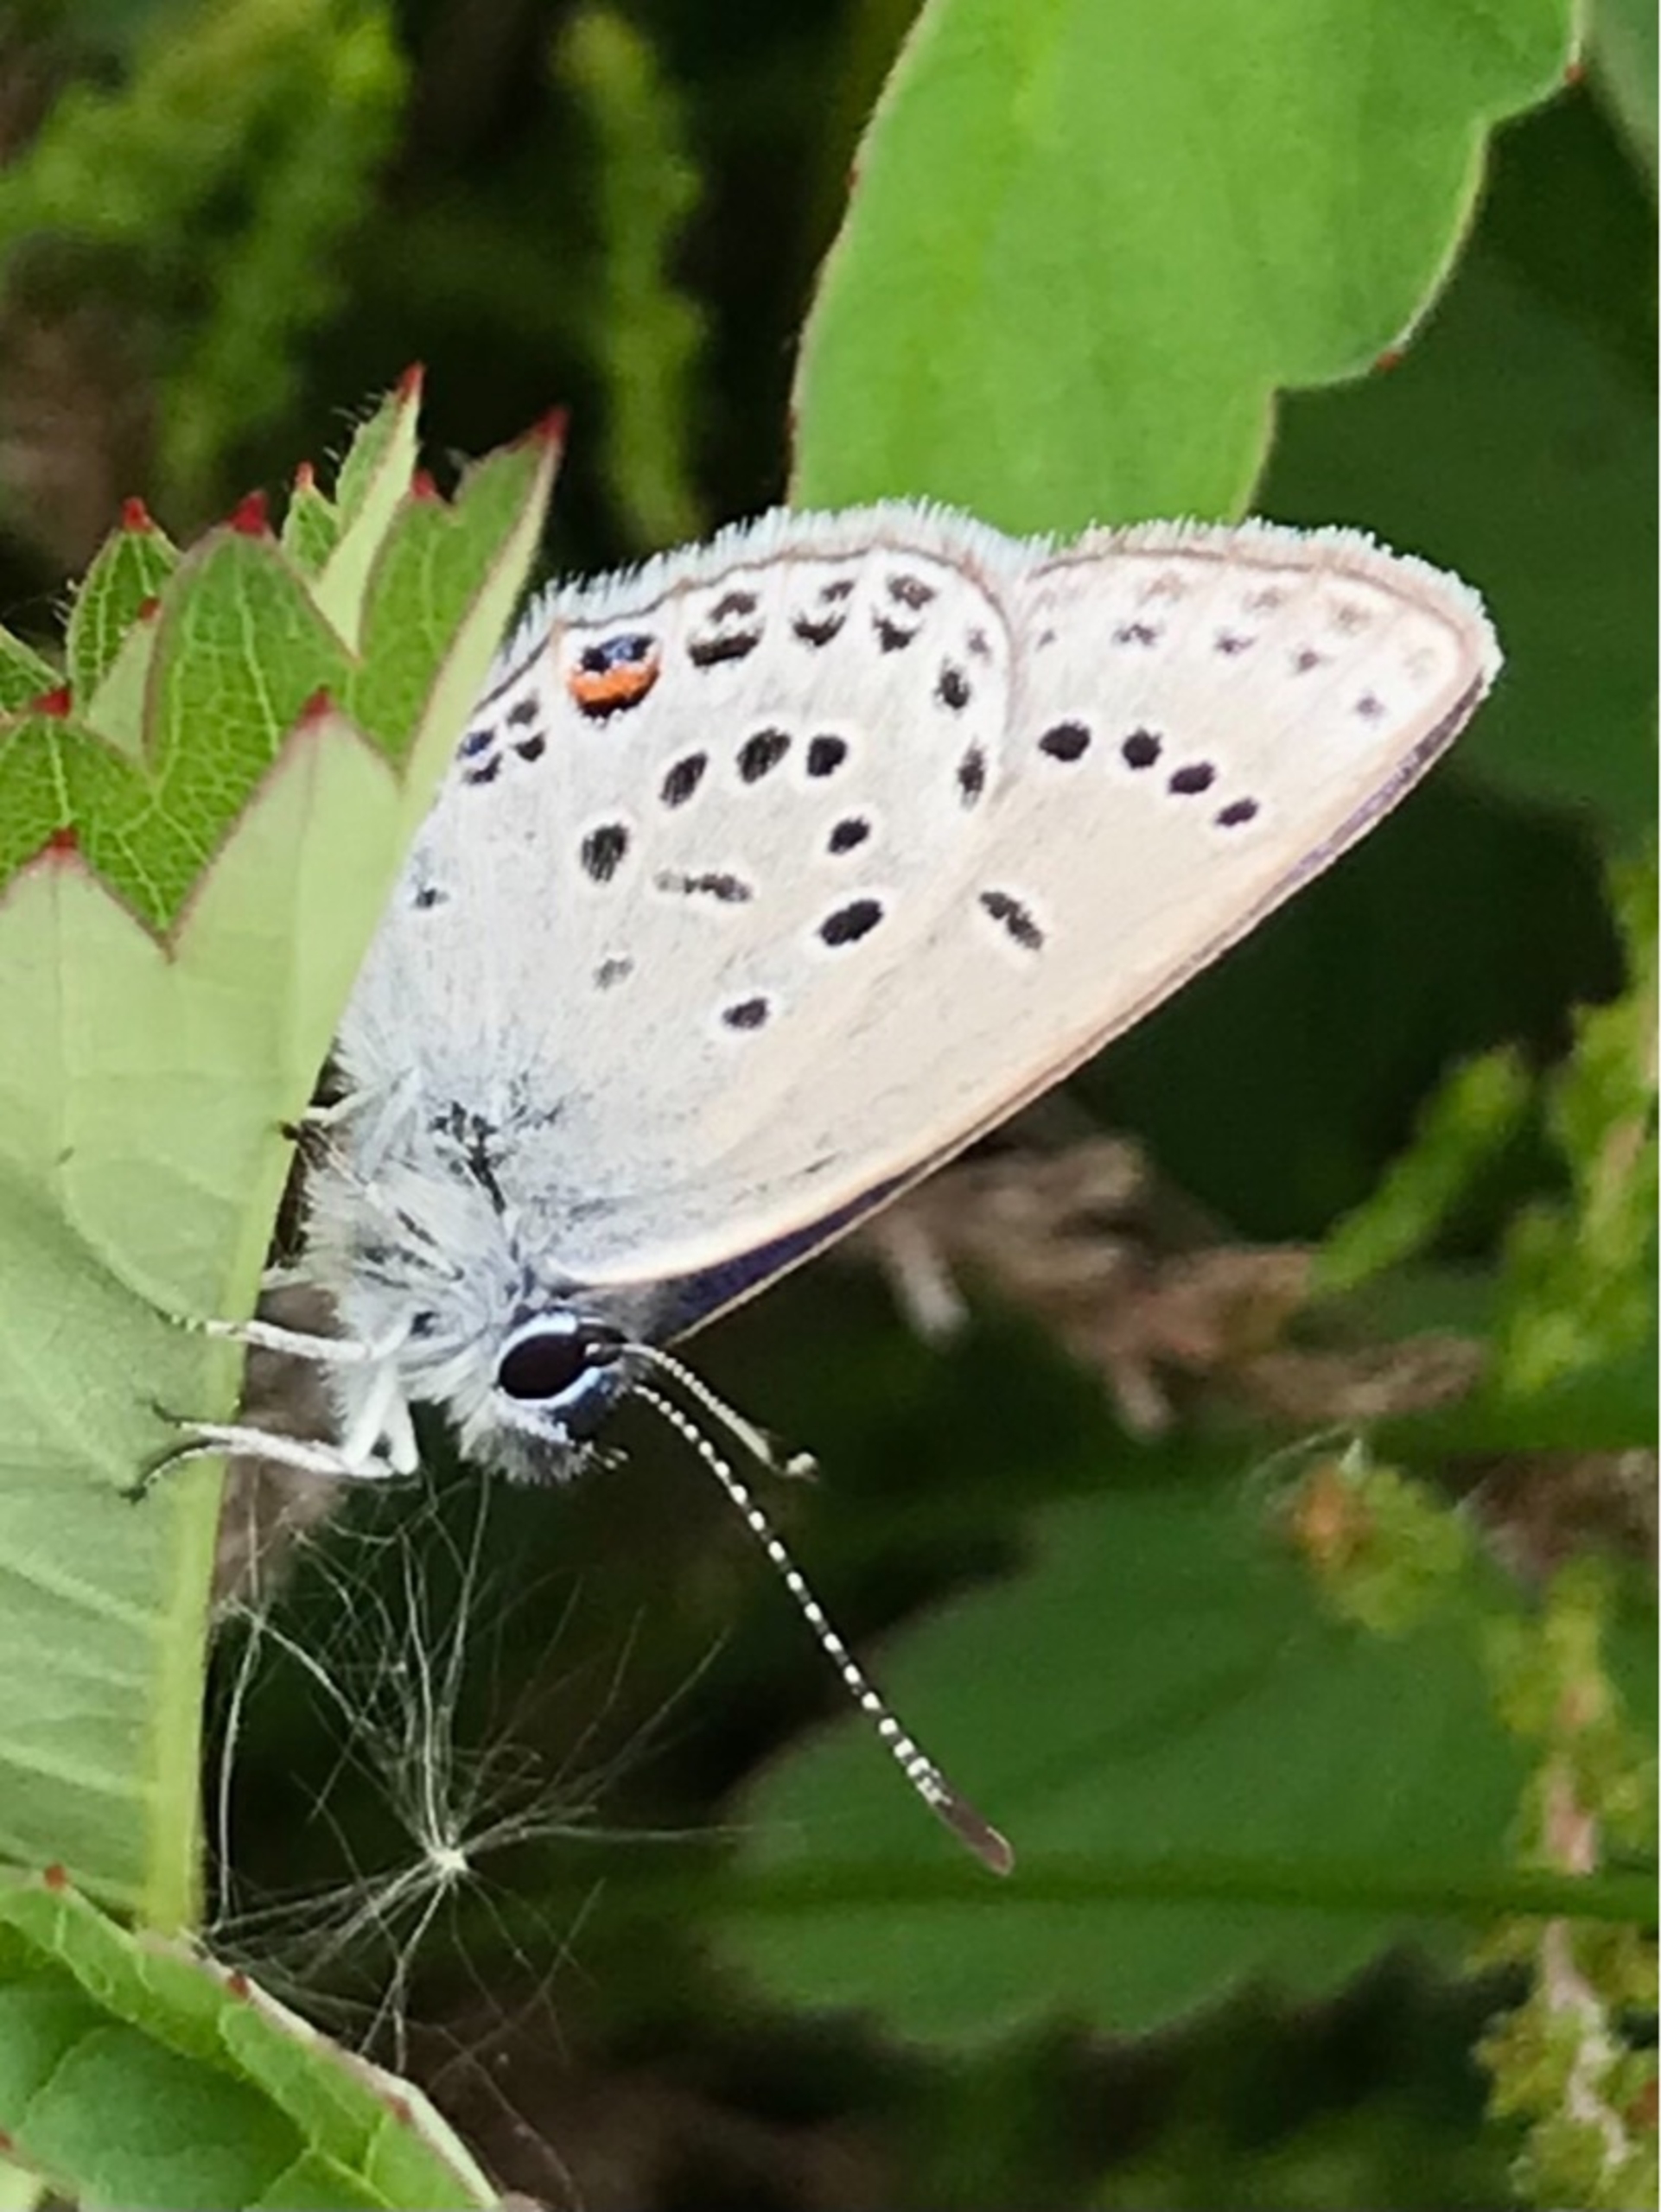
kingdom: Animalia
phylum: Arthropoda
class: Insecta
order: Lepidoptera
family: Lycaenidae
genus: Vacciniina
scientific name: Vacciniina optilete
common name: Bølleblåfugl
